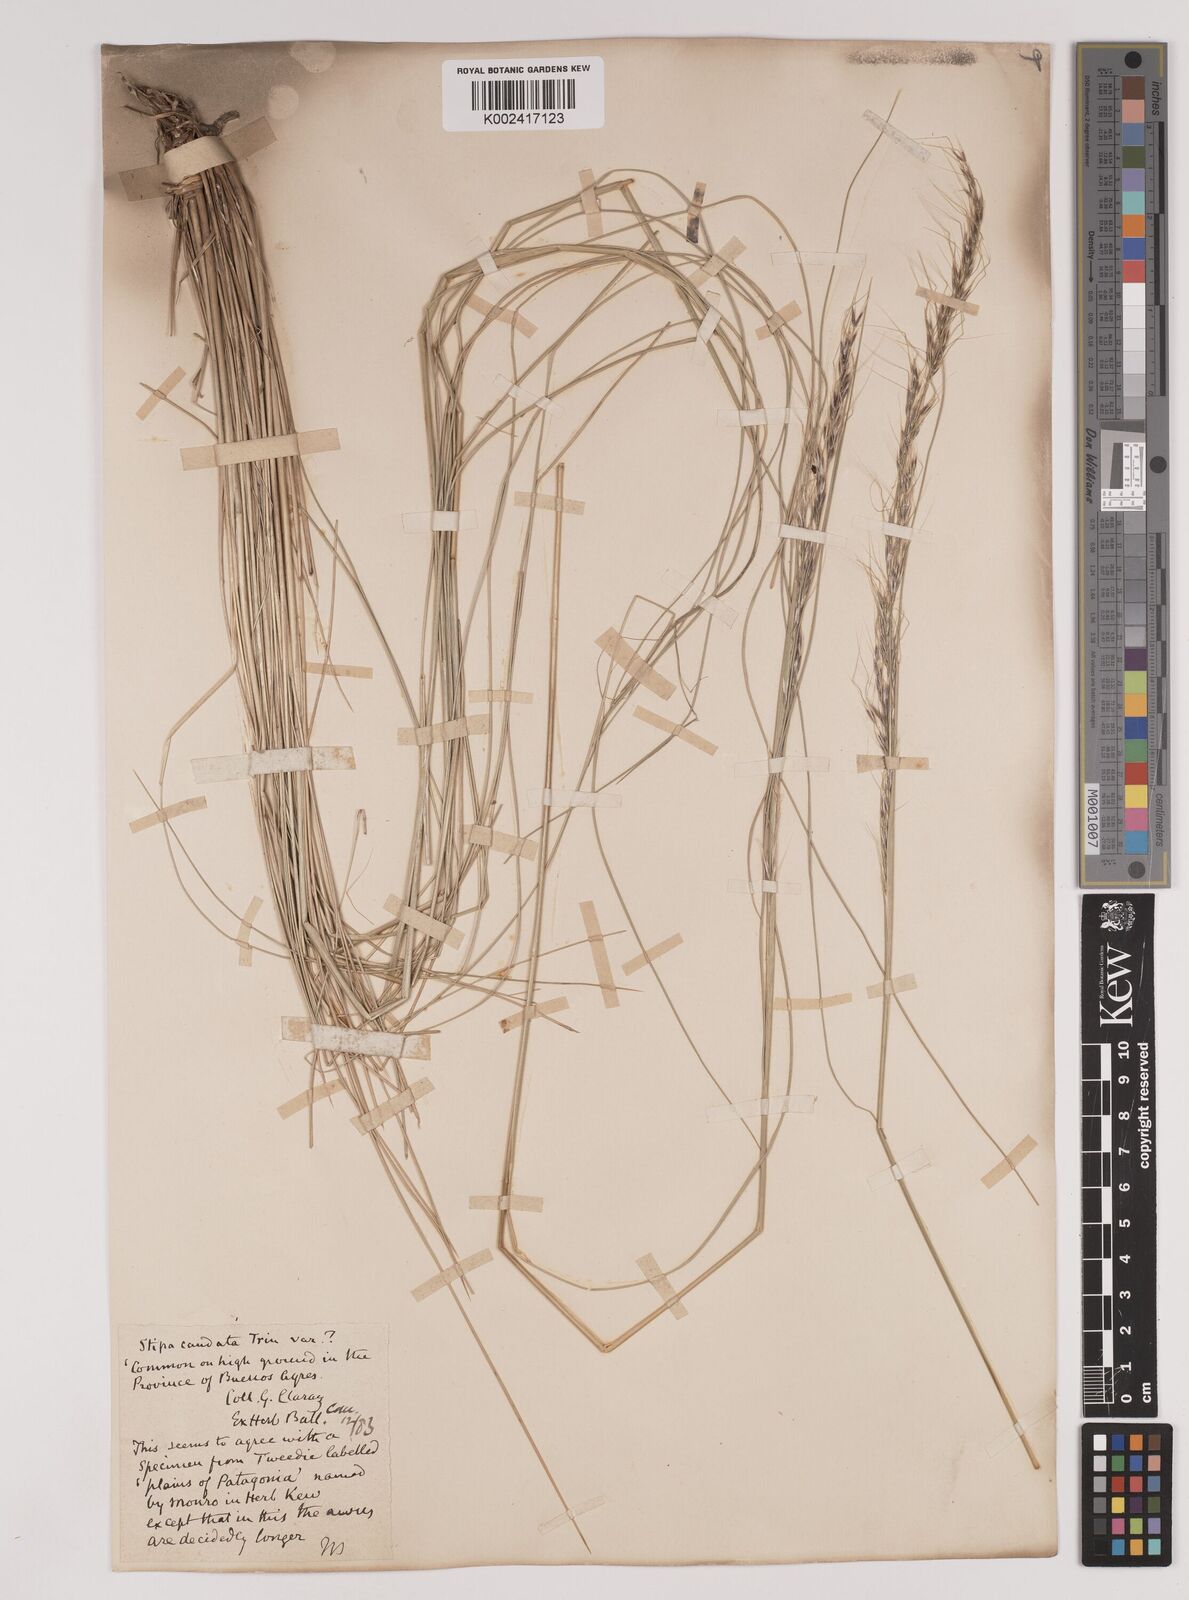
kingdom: Plantae
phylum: Tracheophyta
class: Liliopsida
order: Poales
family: Poaceae
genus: Stipa
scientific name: Stipa
